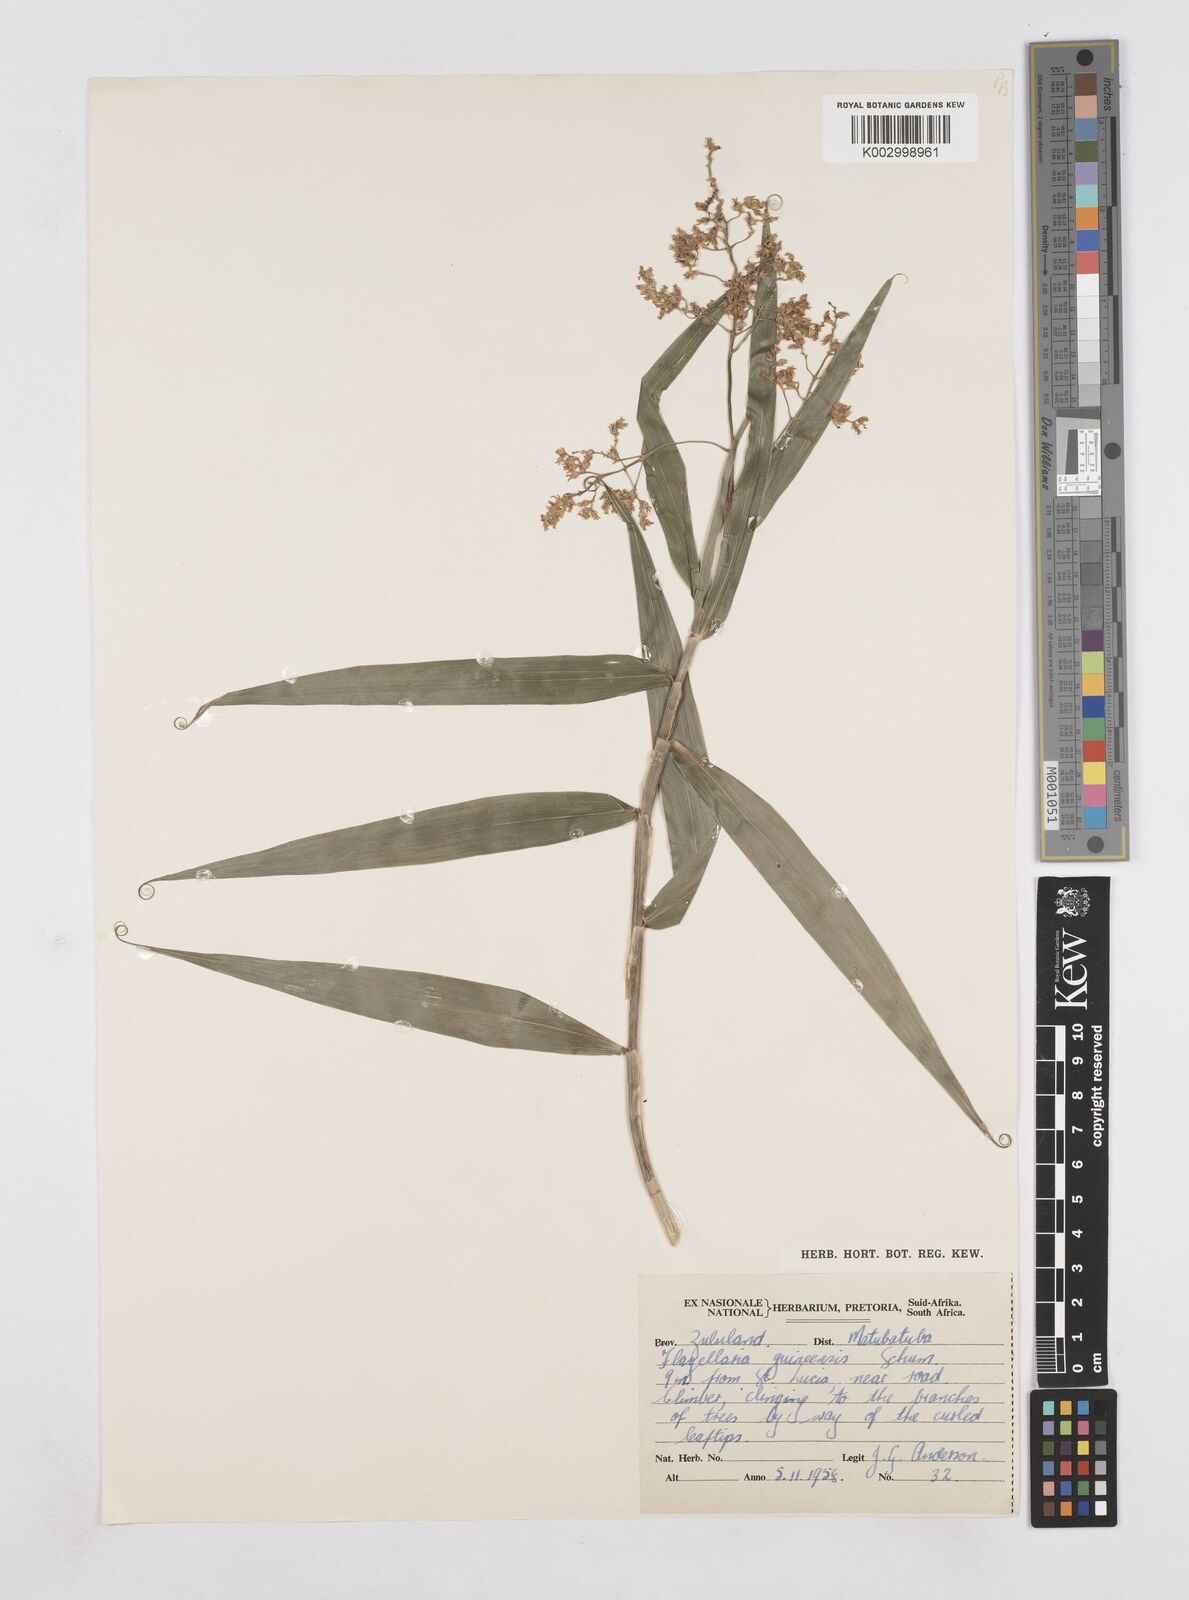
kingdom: Plantae
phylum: Tracheophyta
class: Liliopsida
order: Poales
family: Flagellariaceae
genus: Flagellaria
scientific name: Flagellaria guineensis
